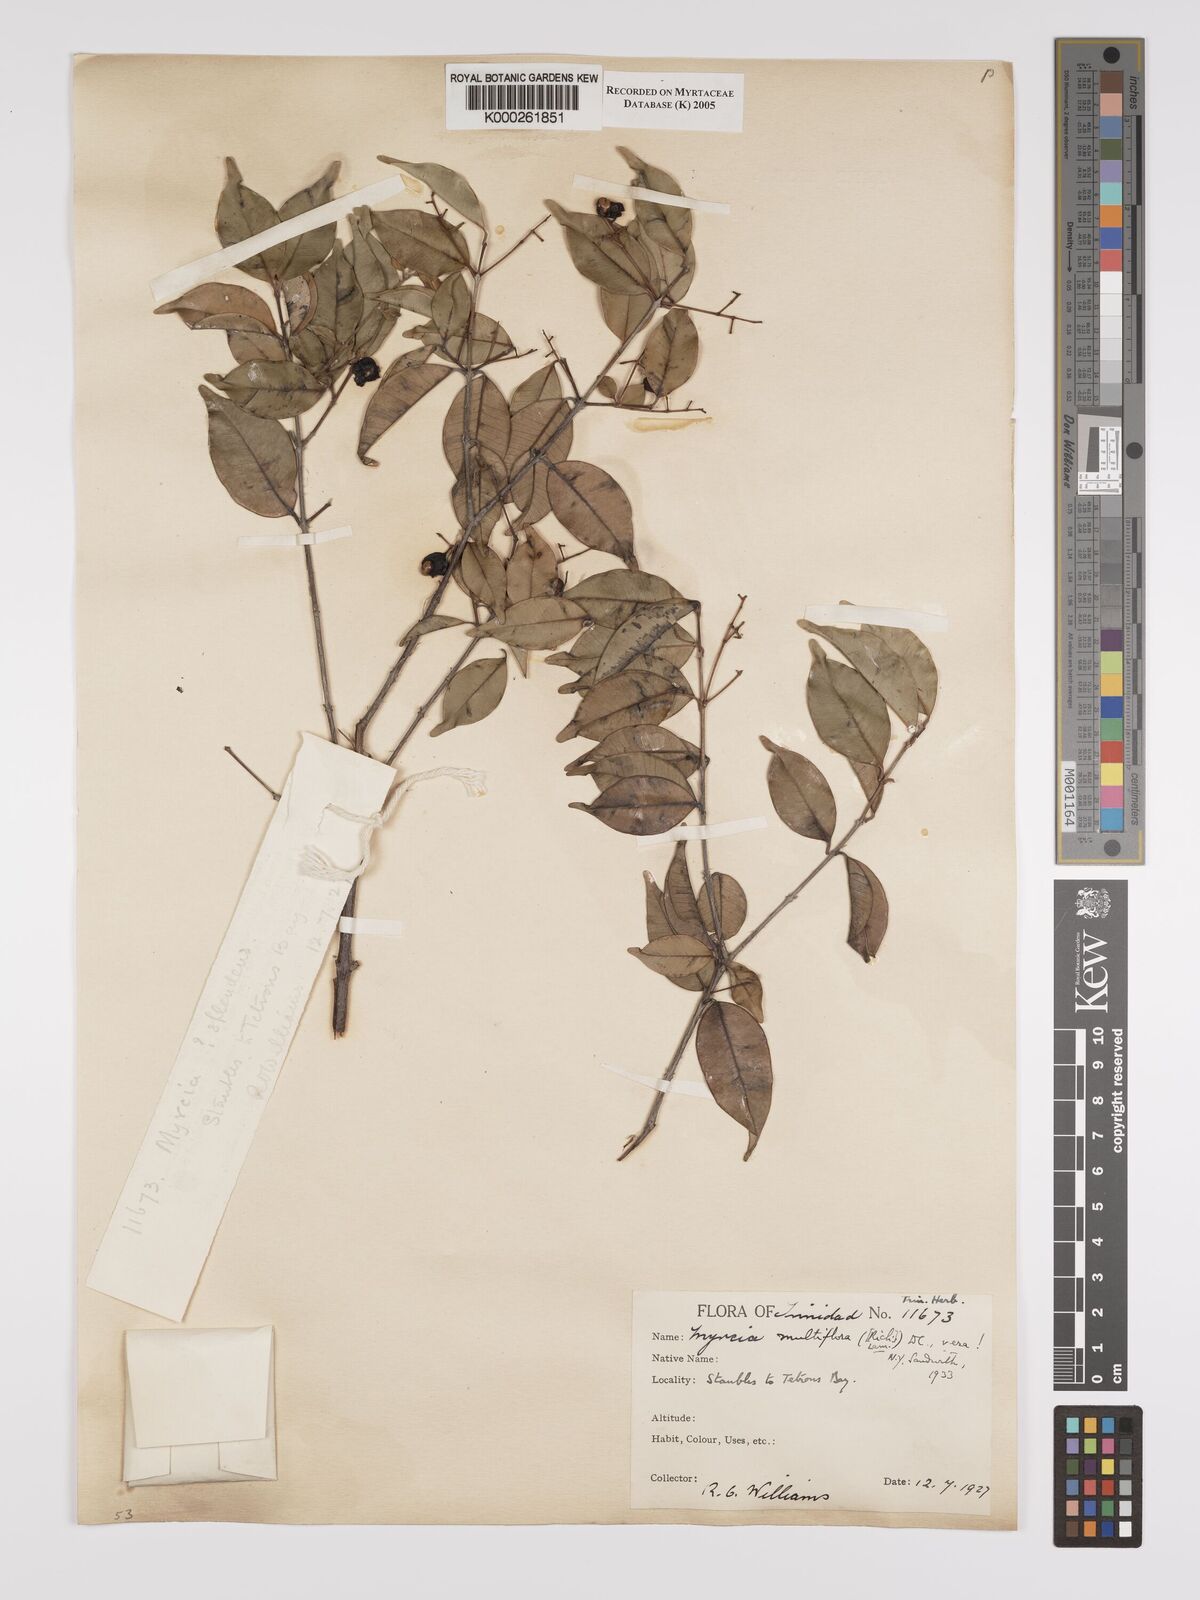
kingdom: Plantae
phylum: Tracheophyta
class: Magnoliopsida
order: Myrtales
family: Myrtaceae
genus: Myrcia
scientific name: Myrcia multiflora
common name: Pedra hume
